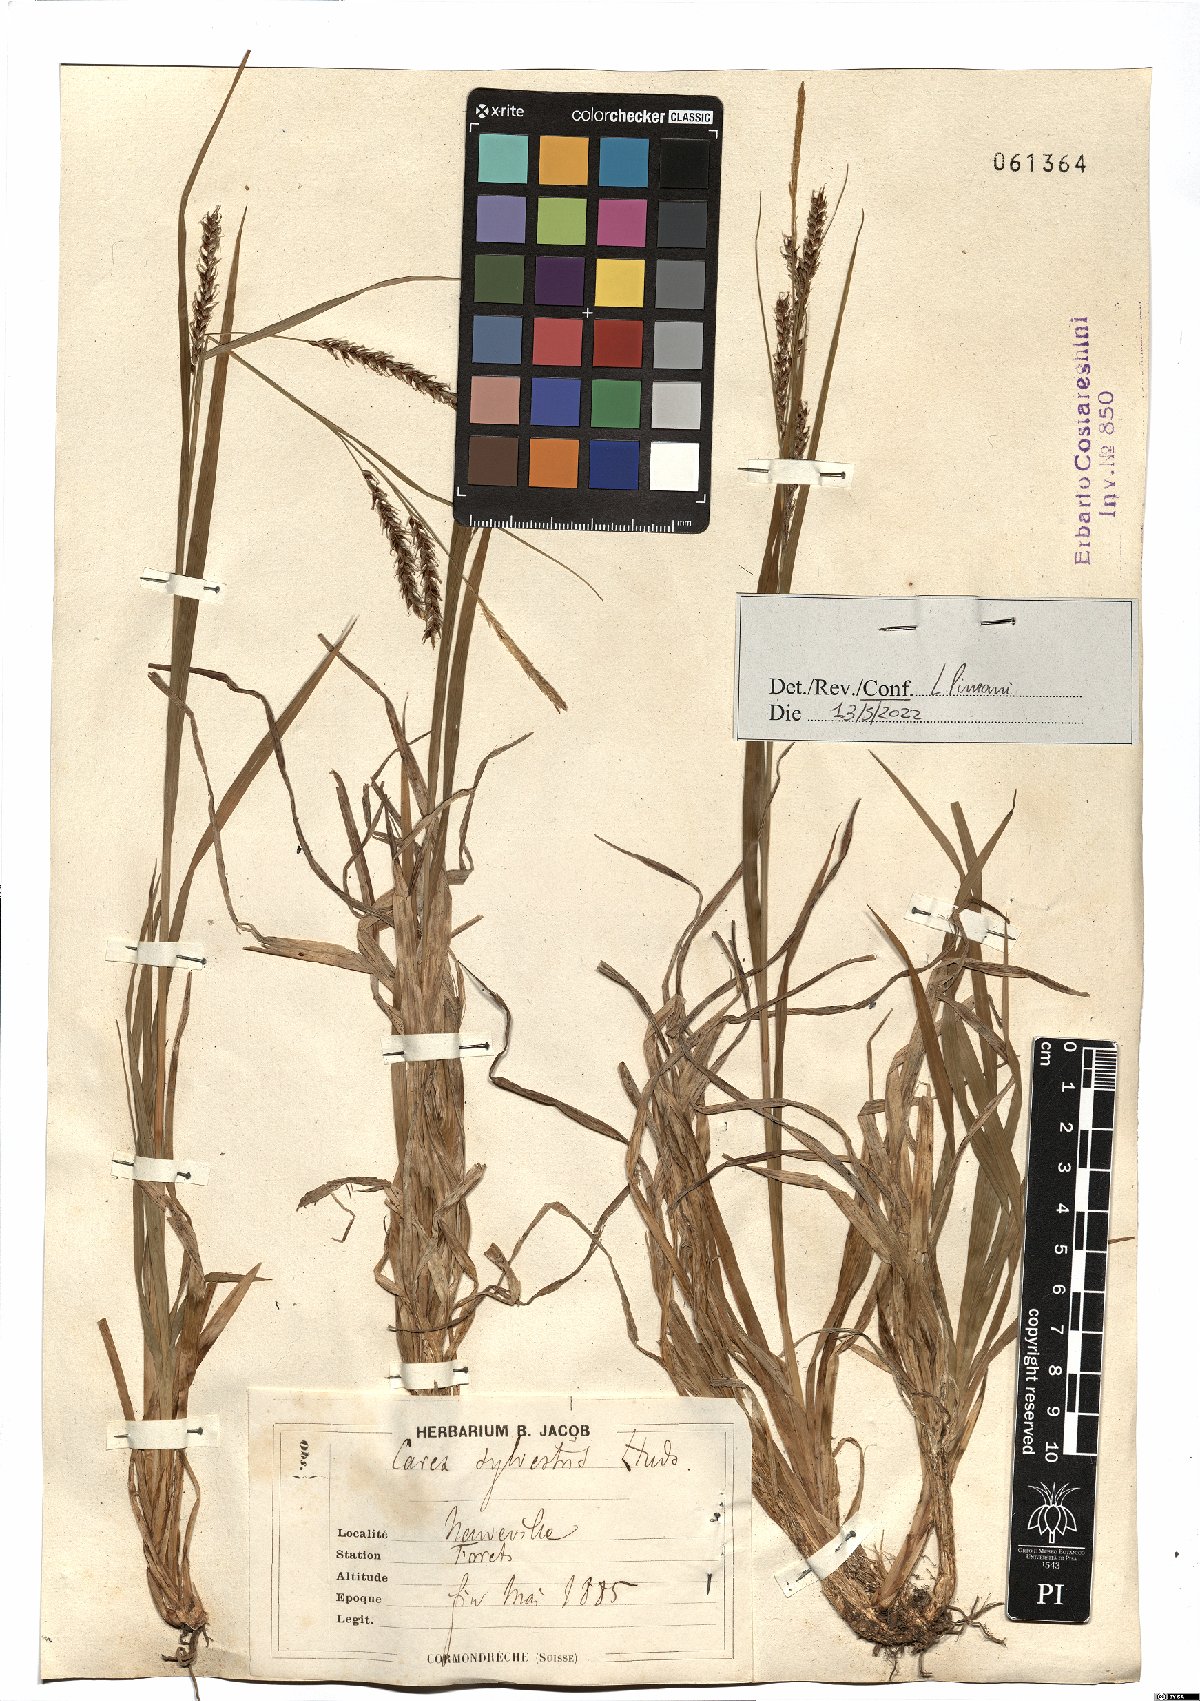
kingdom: Plantae
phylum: Tracheophyta
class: Liliopsida
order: Poales
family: Cyperaceae
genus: Carex
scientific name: Carex sylvatica
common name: Wood-sedge
